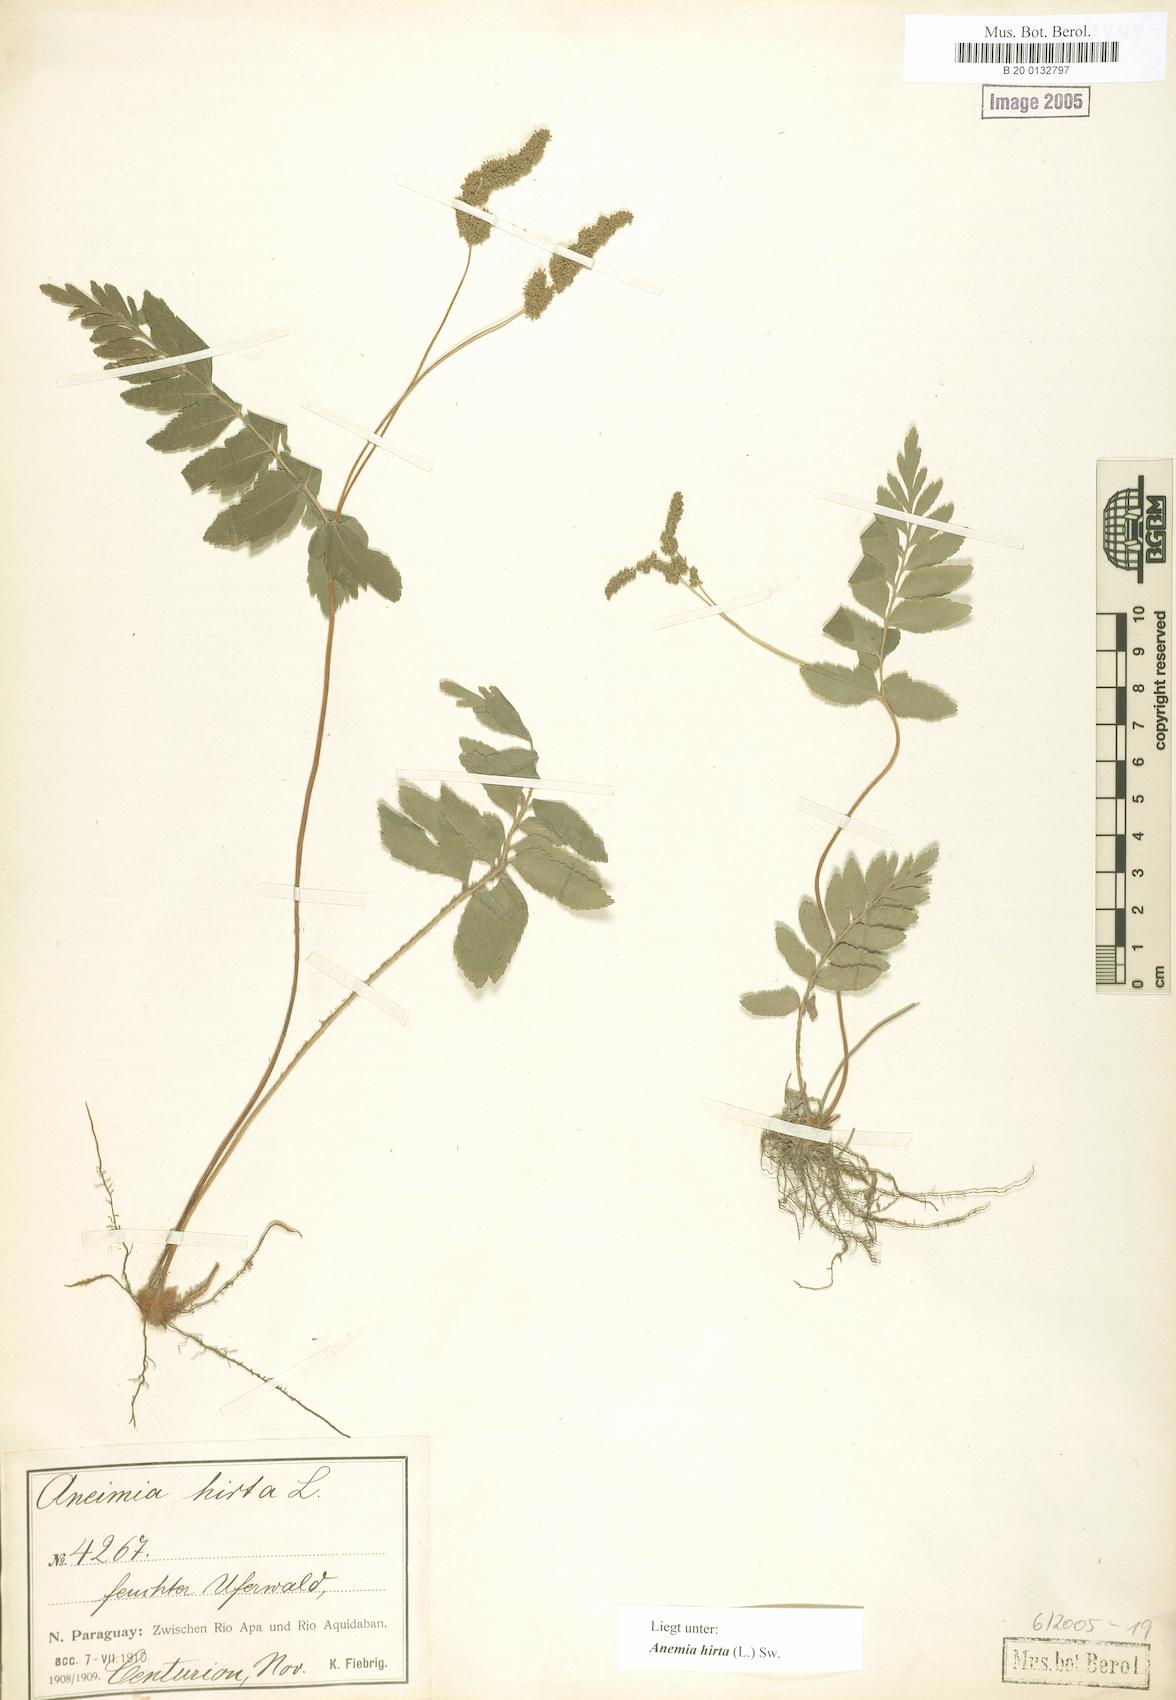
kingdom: Plantae
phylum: Tracheophyta
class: Polypodiopsida
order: Schizaeales
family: Anemiaceae
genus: Anemia
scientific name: Anemia hirta
